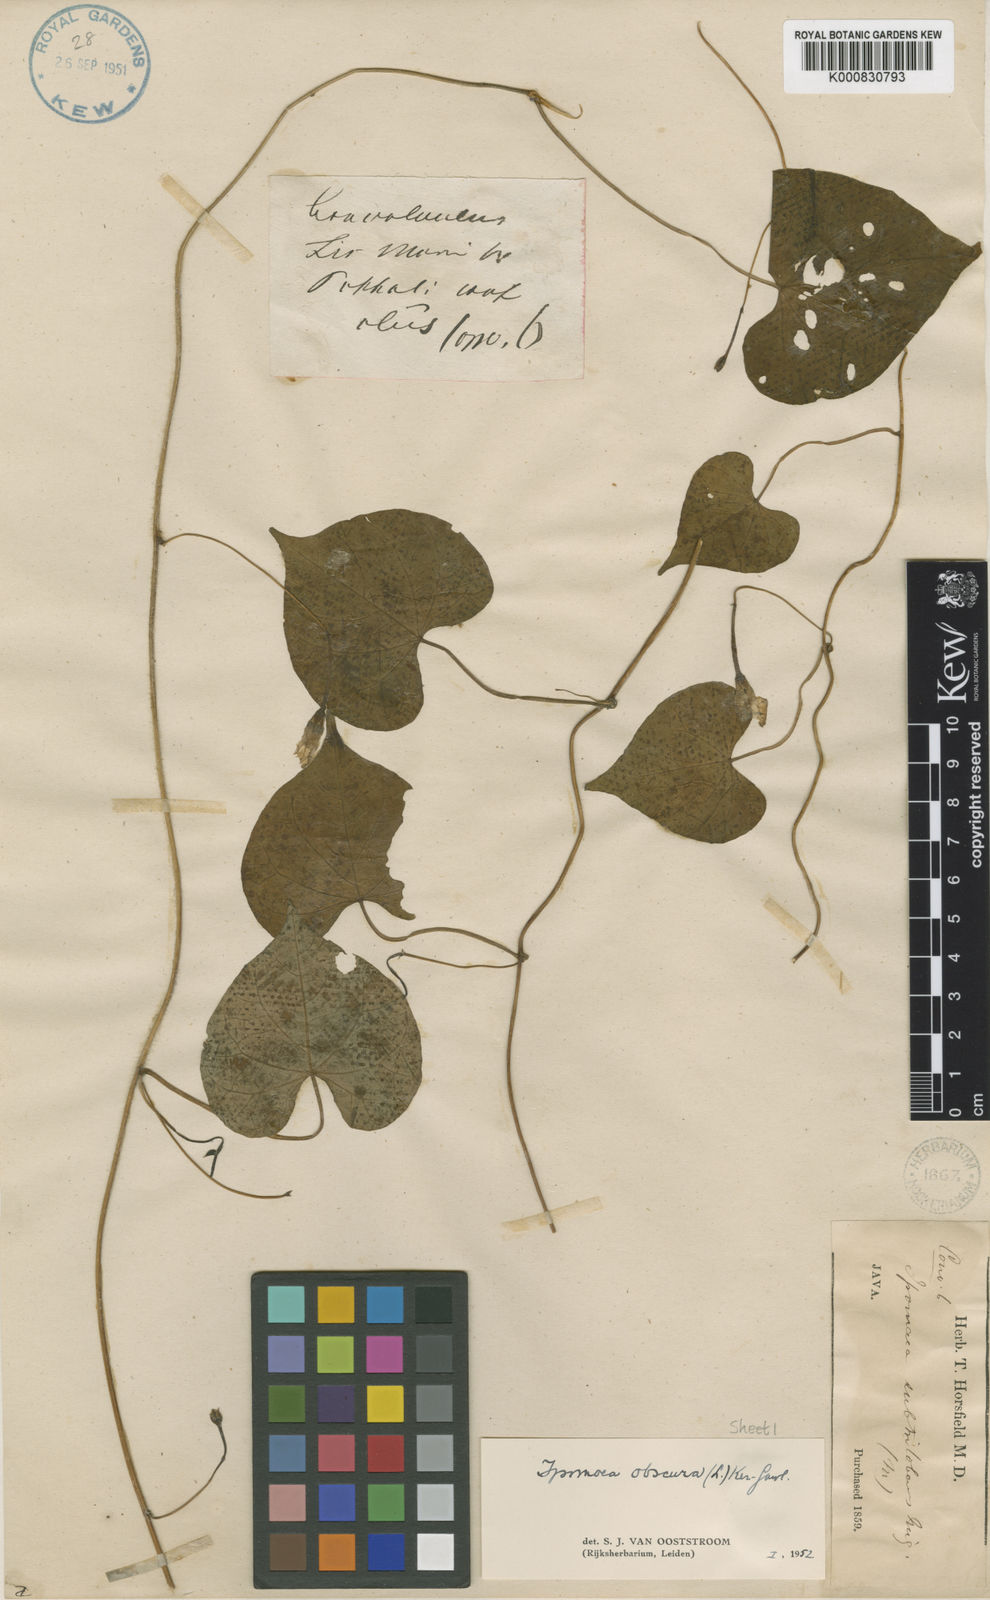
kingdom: Plantae
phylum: Tracheophyta
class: Magnoliopsida
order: Solanales
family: Convolvulaceae
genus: Ipomoea
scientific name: Ipomoea obscura
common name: Obscure morning-glory
